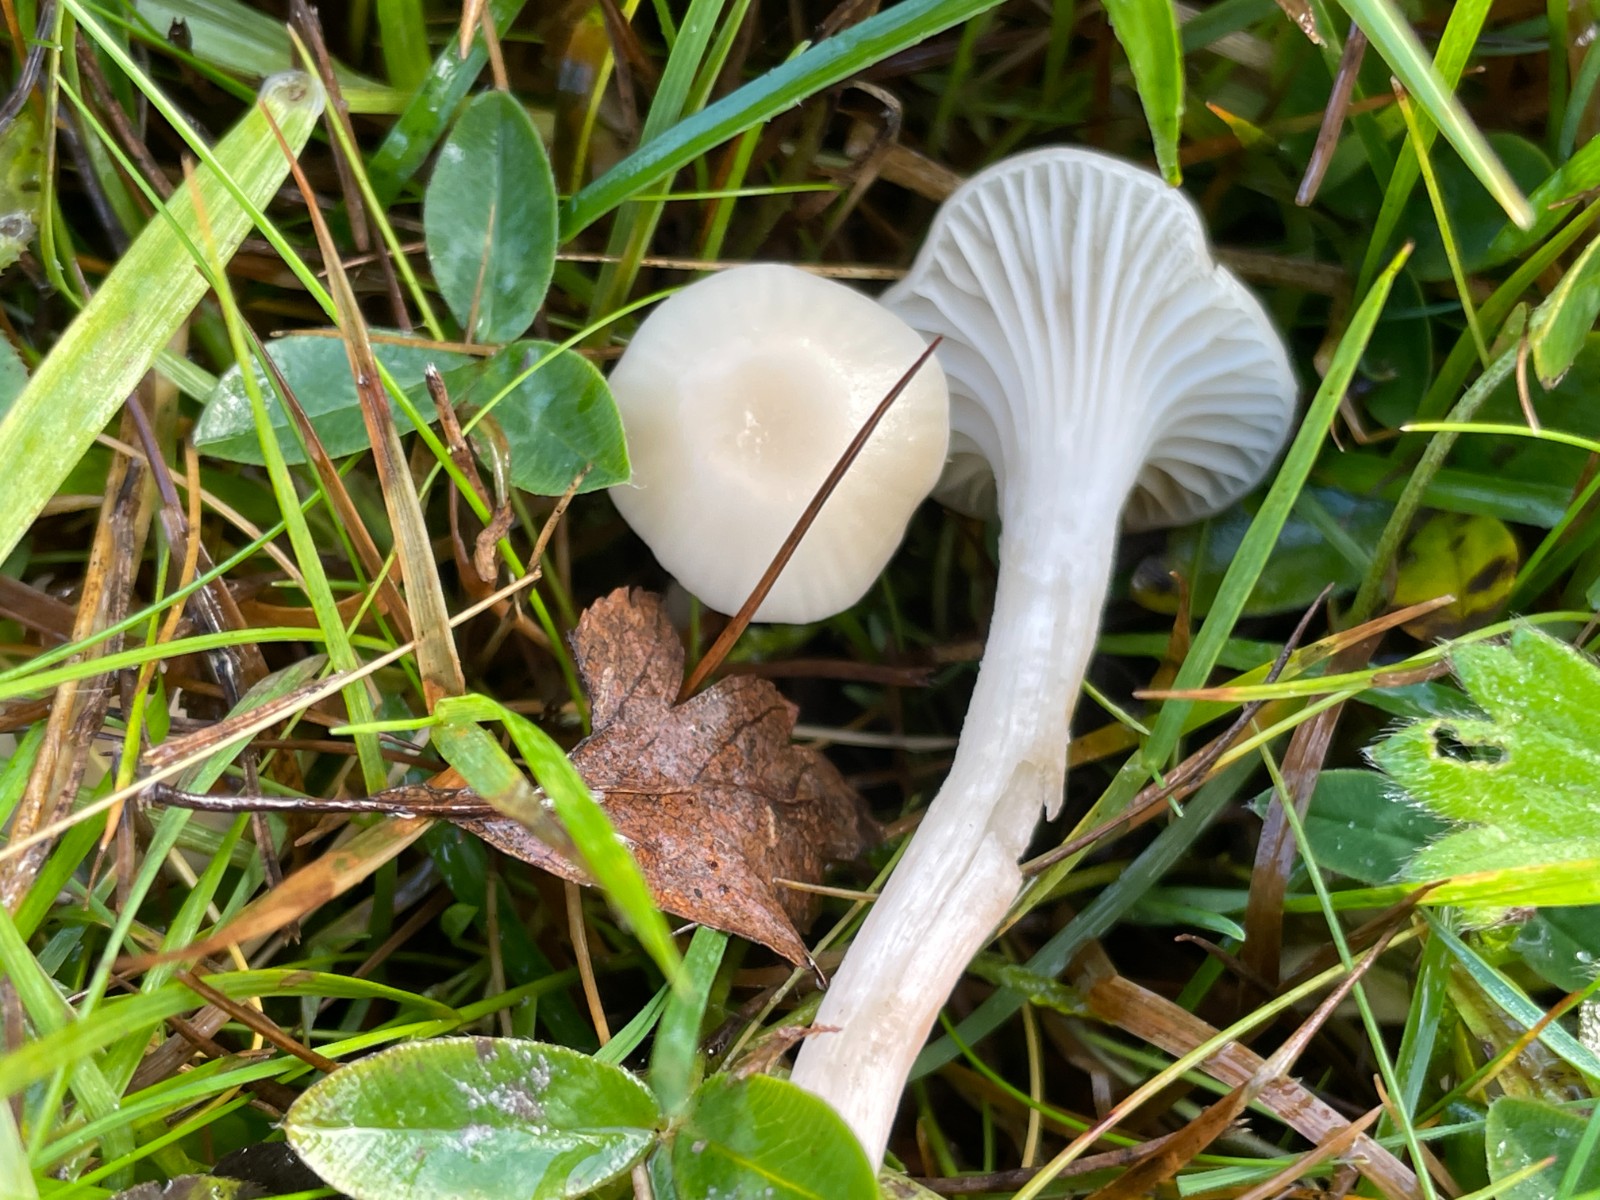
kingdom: Fungi
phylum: Basidiomycota
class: Agaricomycetes
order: Agaricales
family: Hygrophoraceae
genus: Cuphophyllus
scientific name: Cuphophyllus russocoriaceus
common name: ruslæder-vokshat
